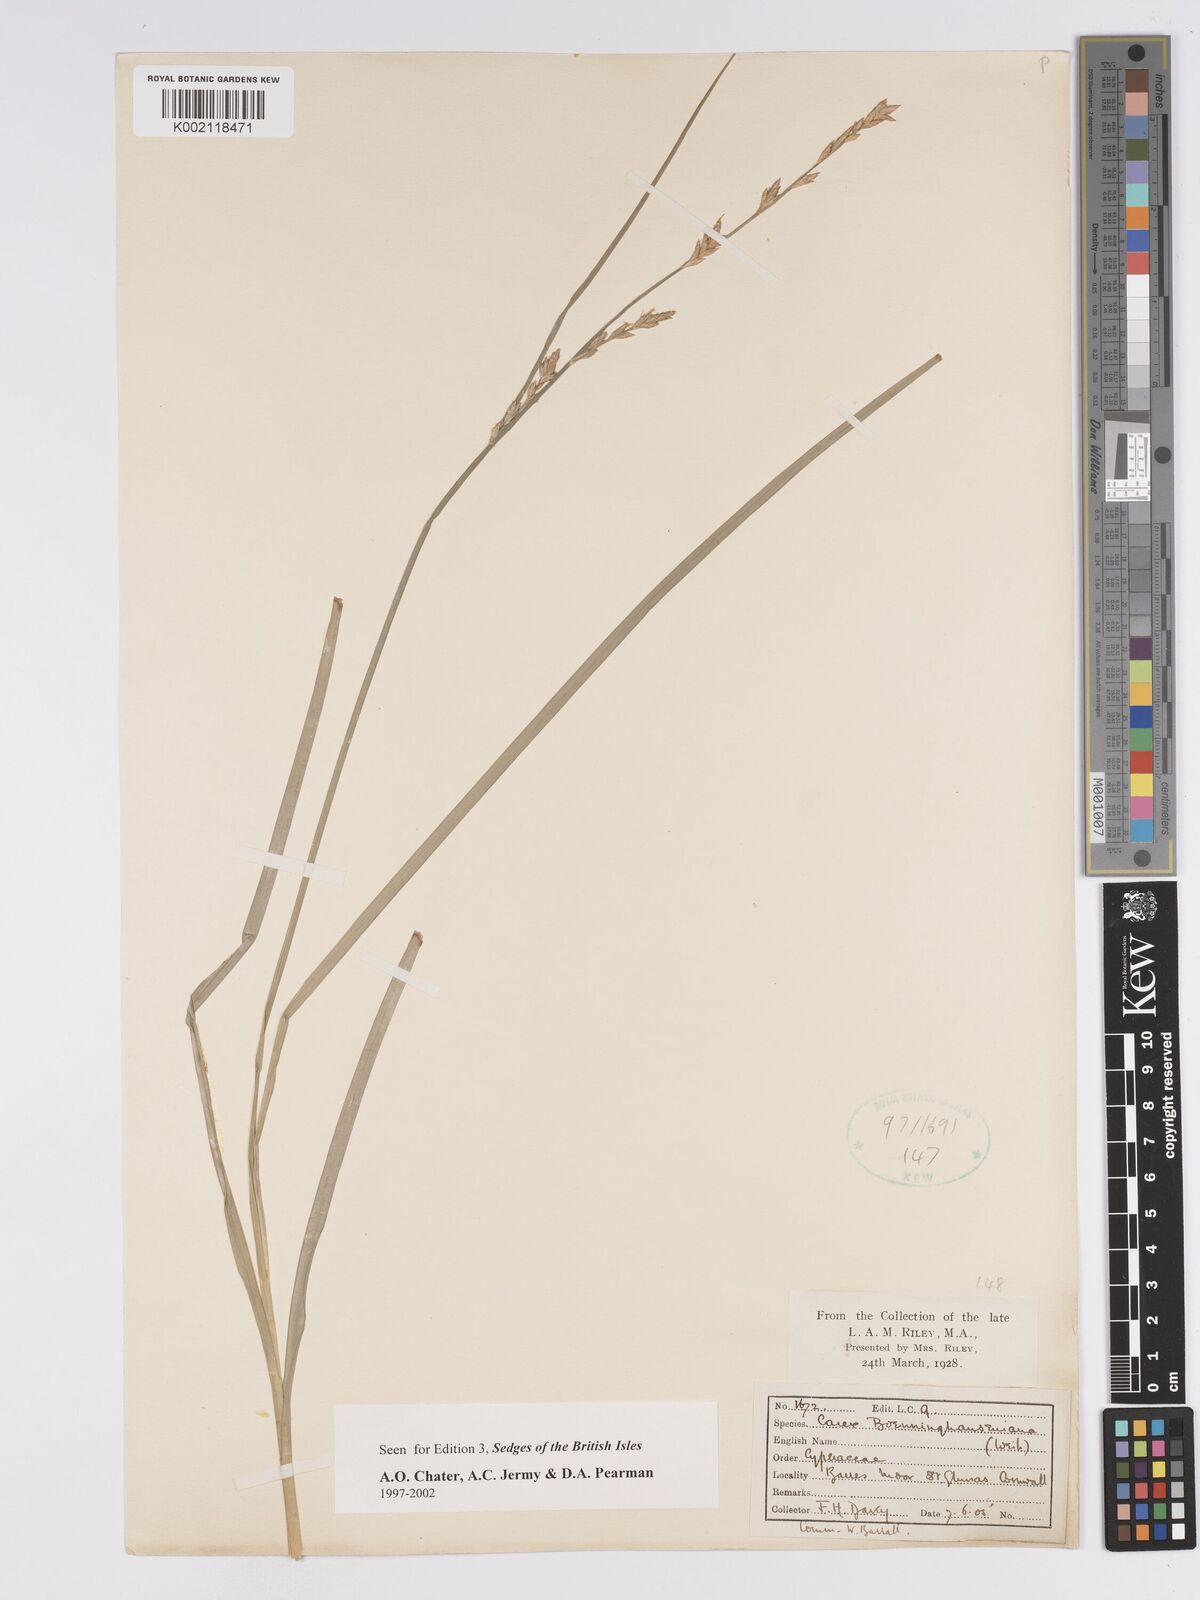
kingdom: Plantae
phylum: Tracheophyta
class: Liliopsida
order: Poales
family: Cyperaceae
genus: Carex
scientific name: Carex boenninghausiana
